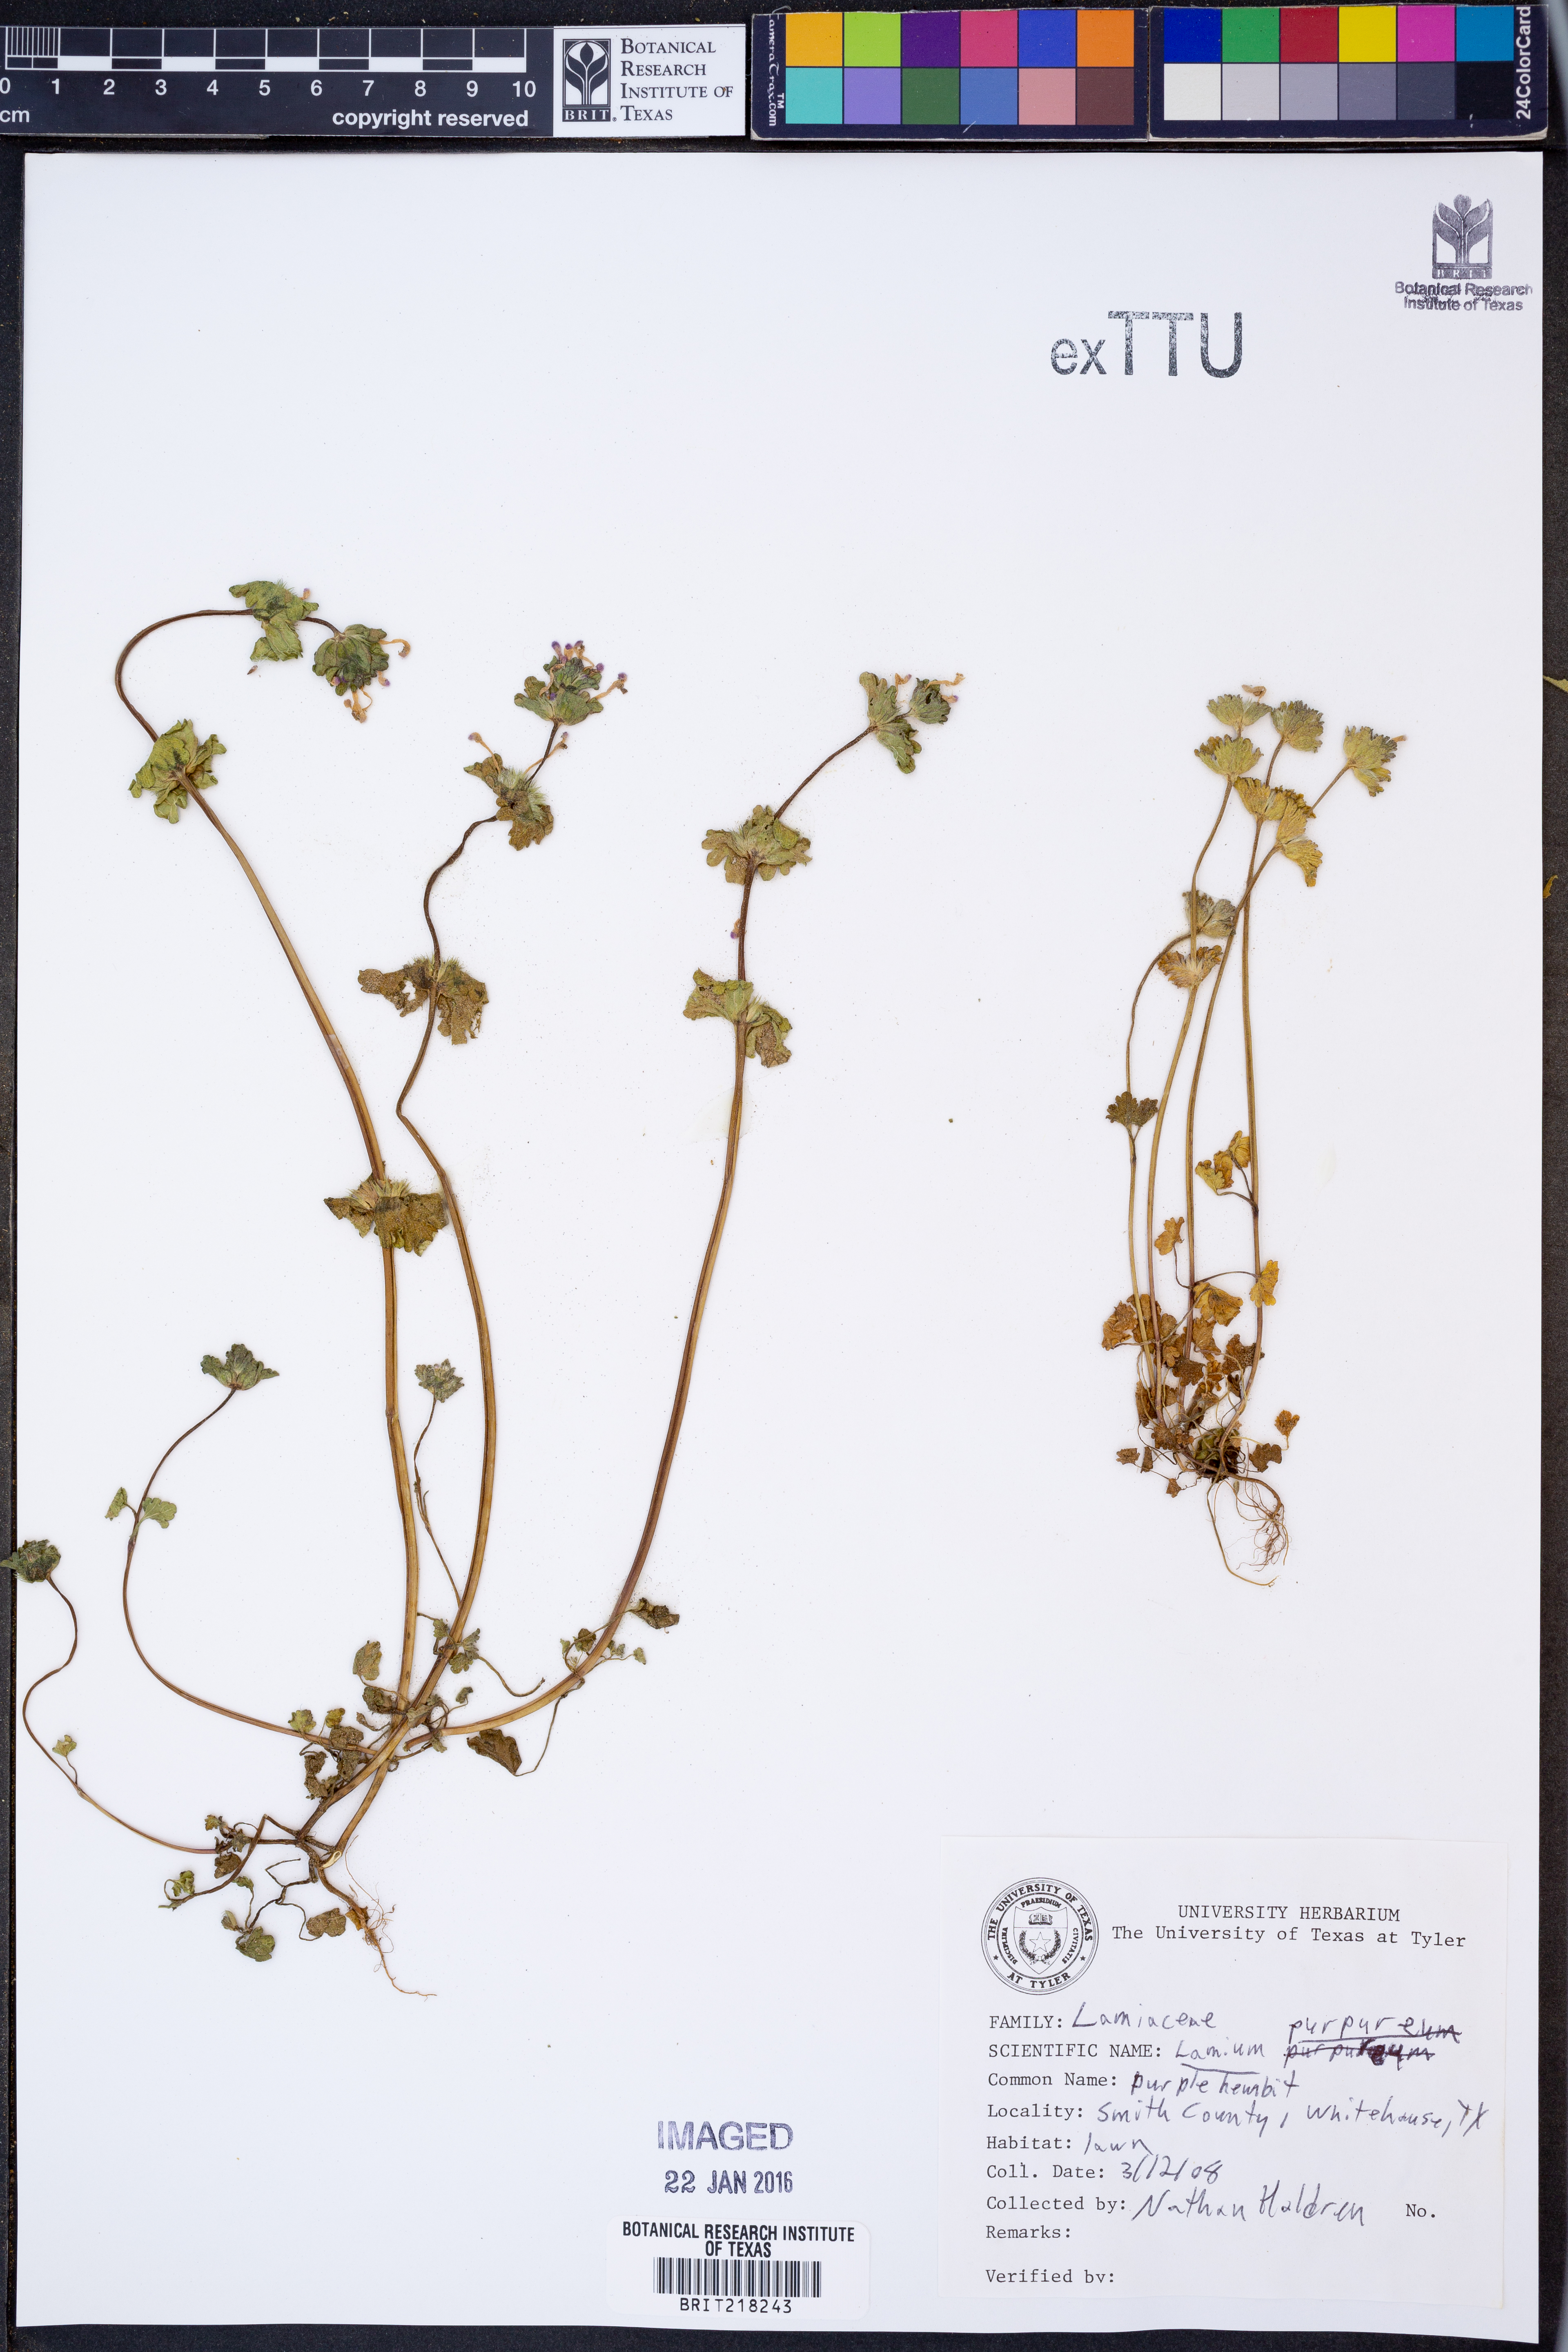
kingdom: Plantae
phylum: Tracheophyta
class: Magnoliopsida
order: Lamiales
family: Lamiaceae
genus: Lamium
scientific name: Lamium purpureum
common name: Red dead-nettle
